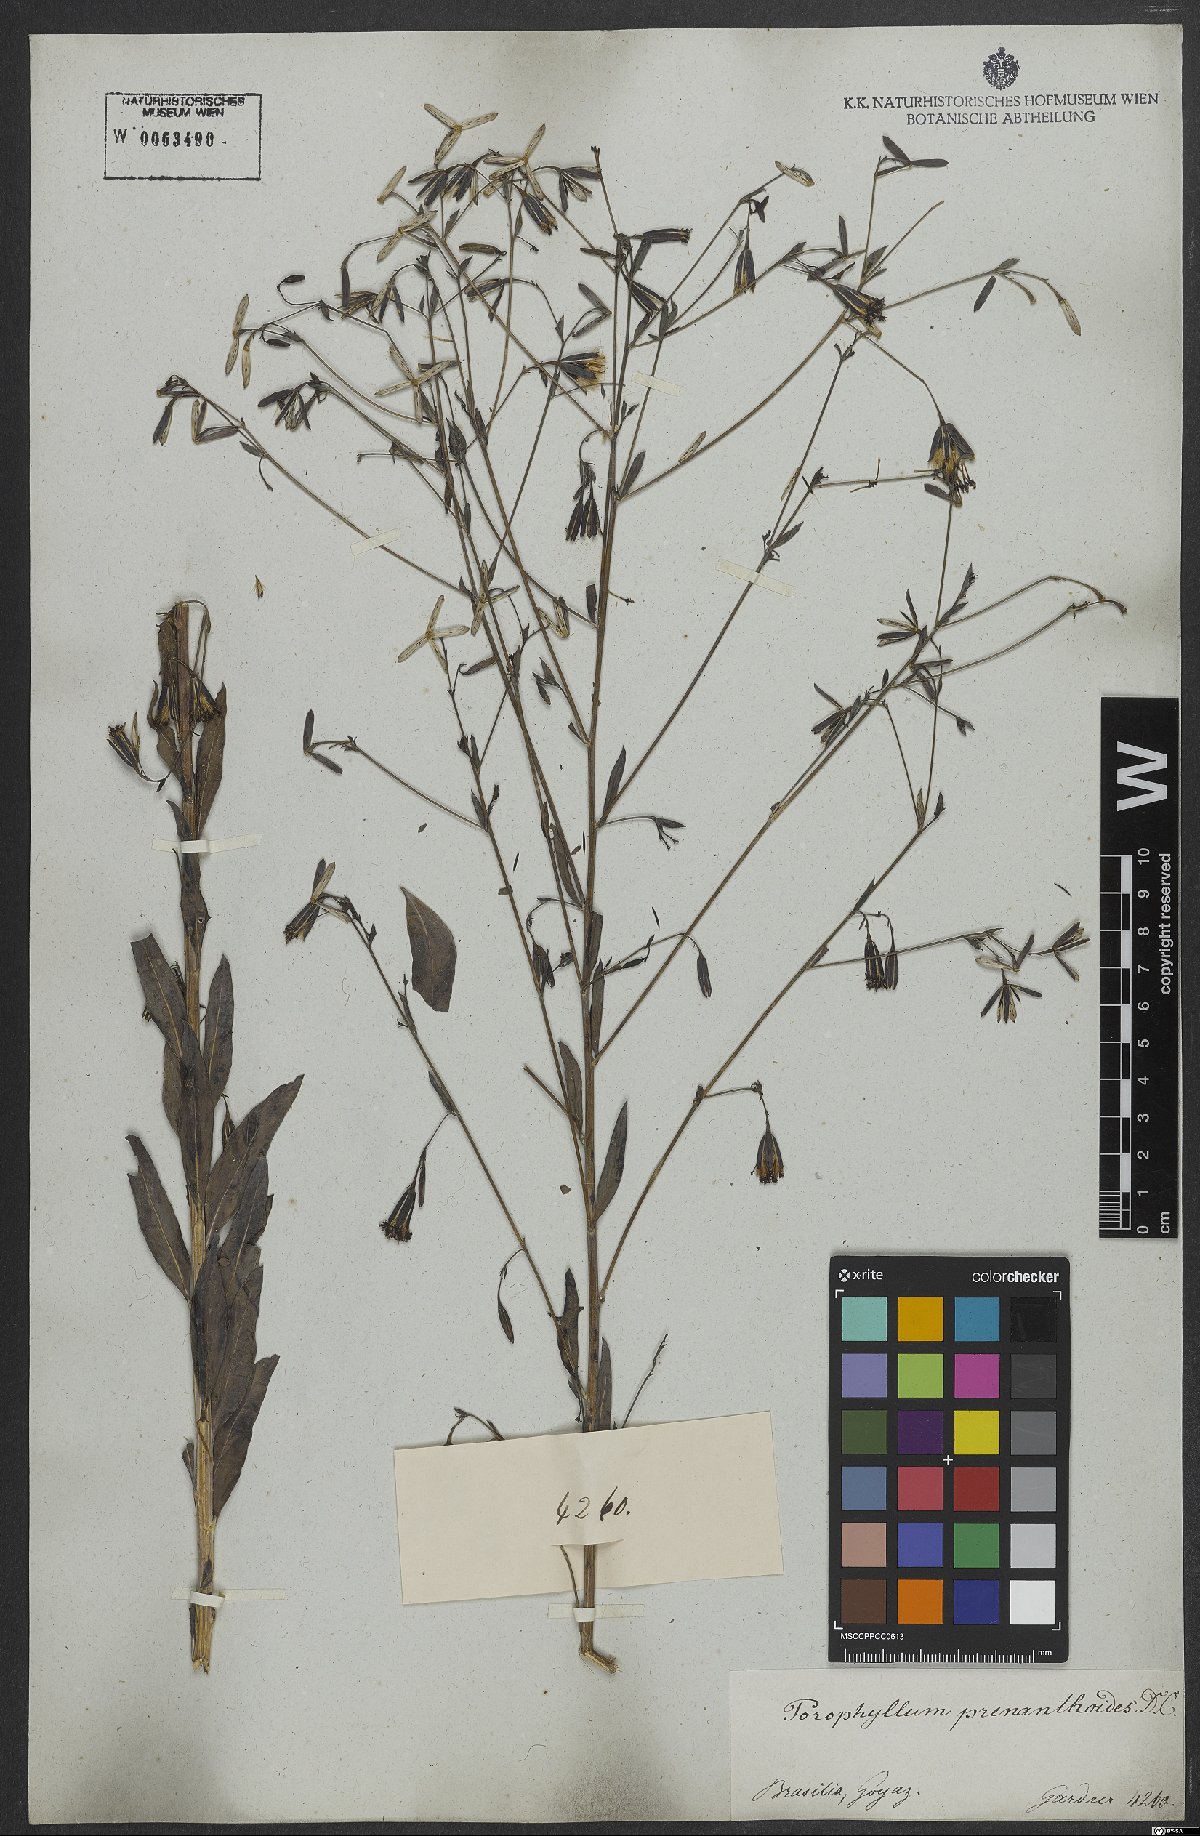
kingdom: Plantae
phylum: Tracheophyta
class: Magnoliopsida
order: Asterales
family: Asteraceae
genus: Porophyllum
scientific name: Porophyllum lanceolatum
